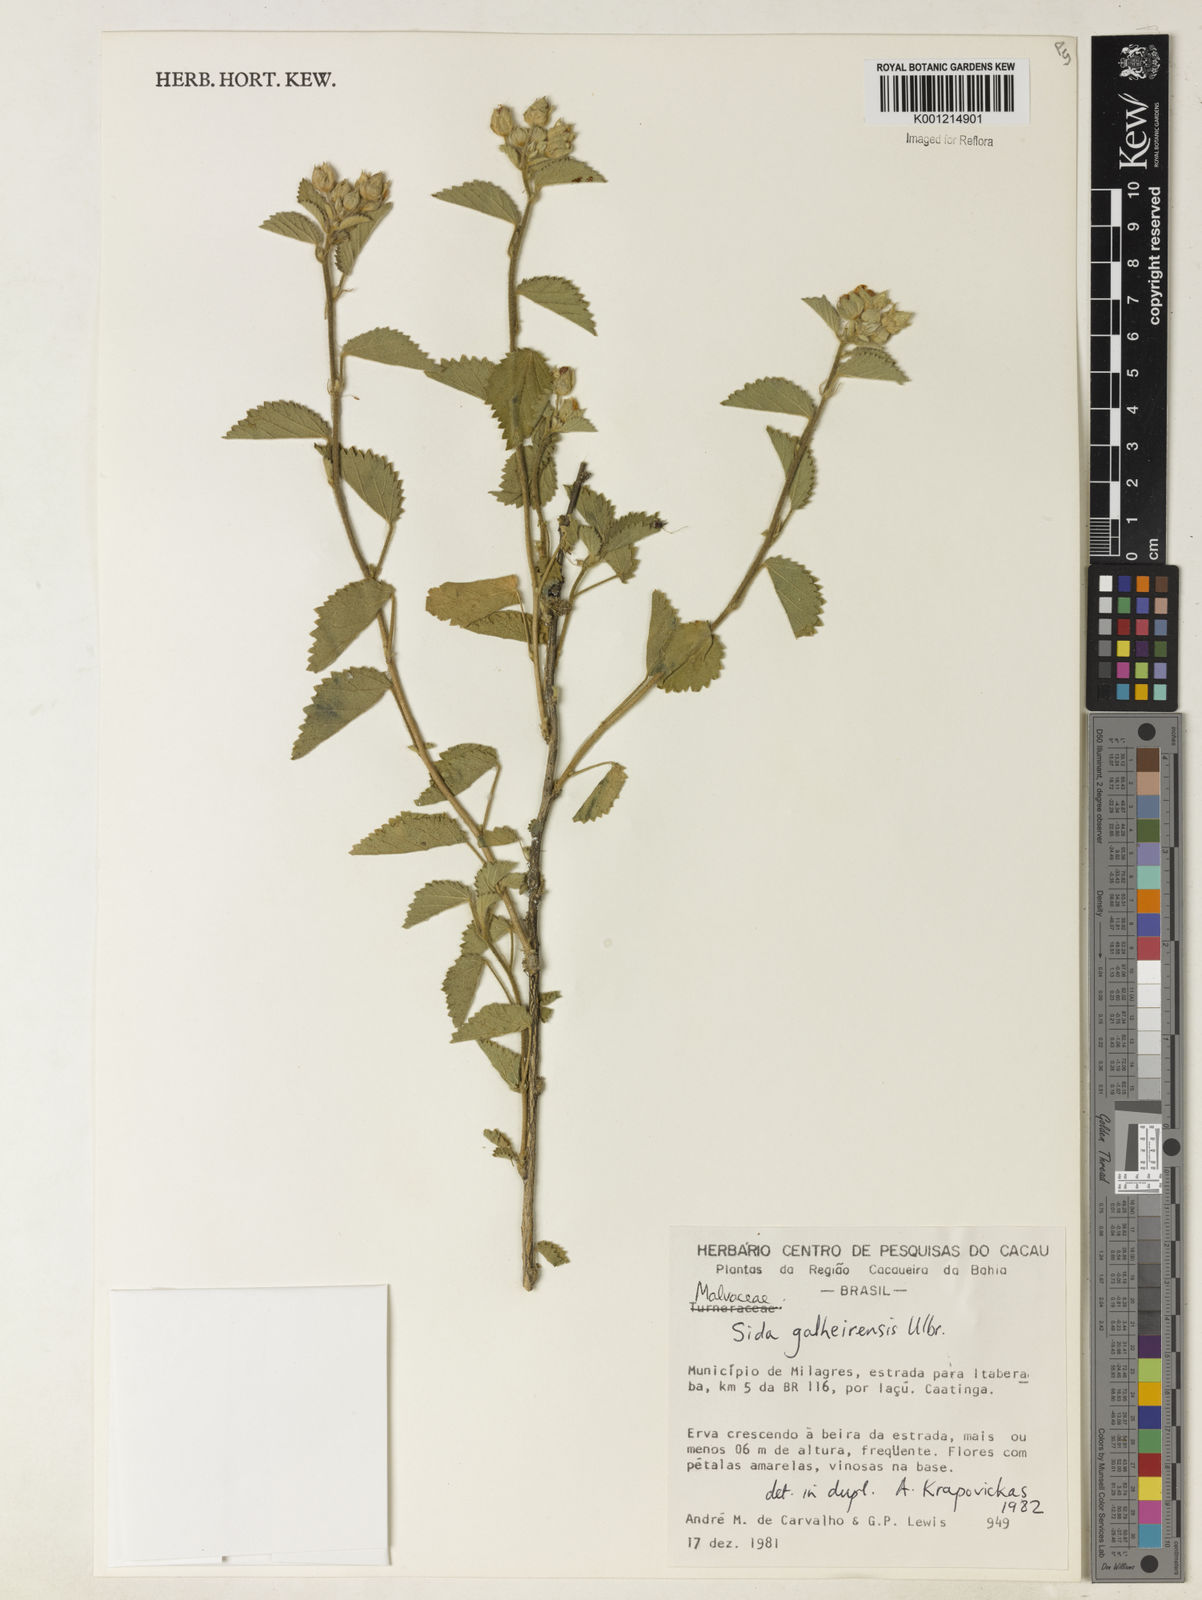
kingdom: Plantae
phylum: Tracheophyta
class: Magnoliopsida
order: Malvales
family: Malvaceae
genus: Sida
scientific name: Sida galheirensis
